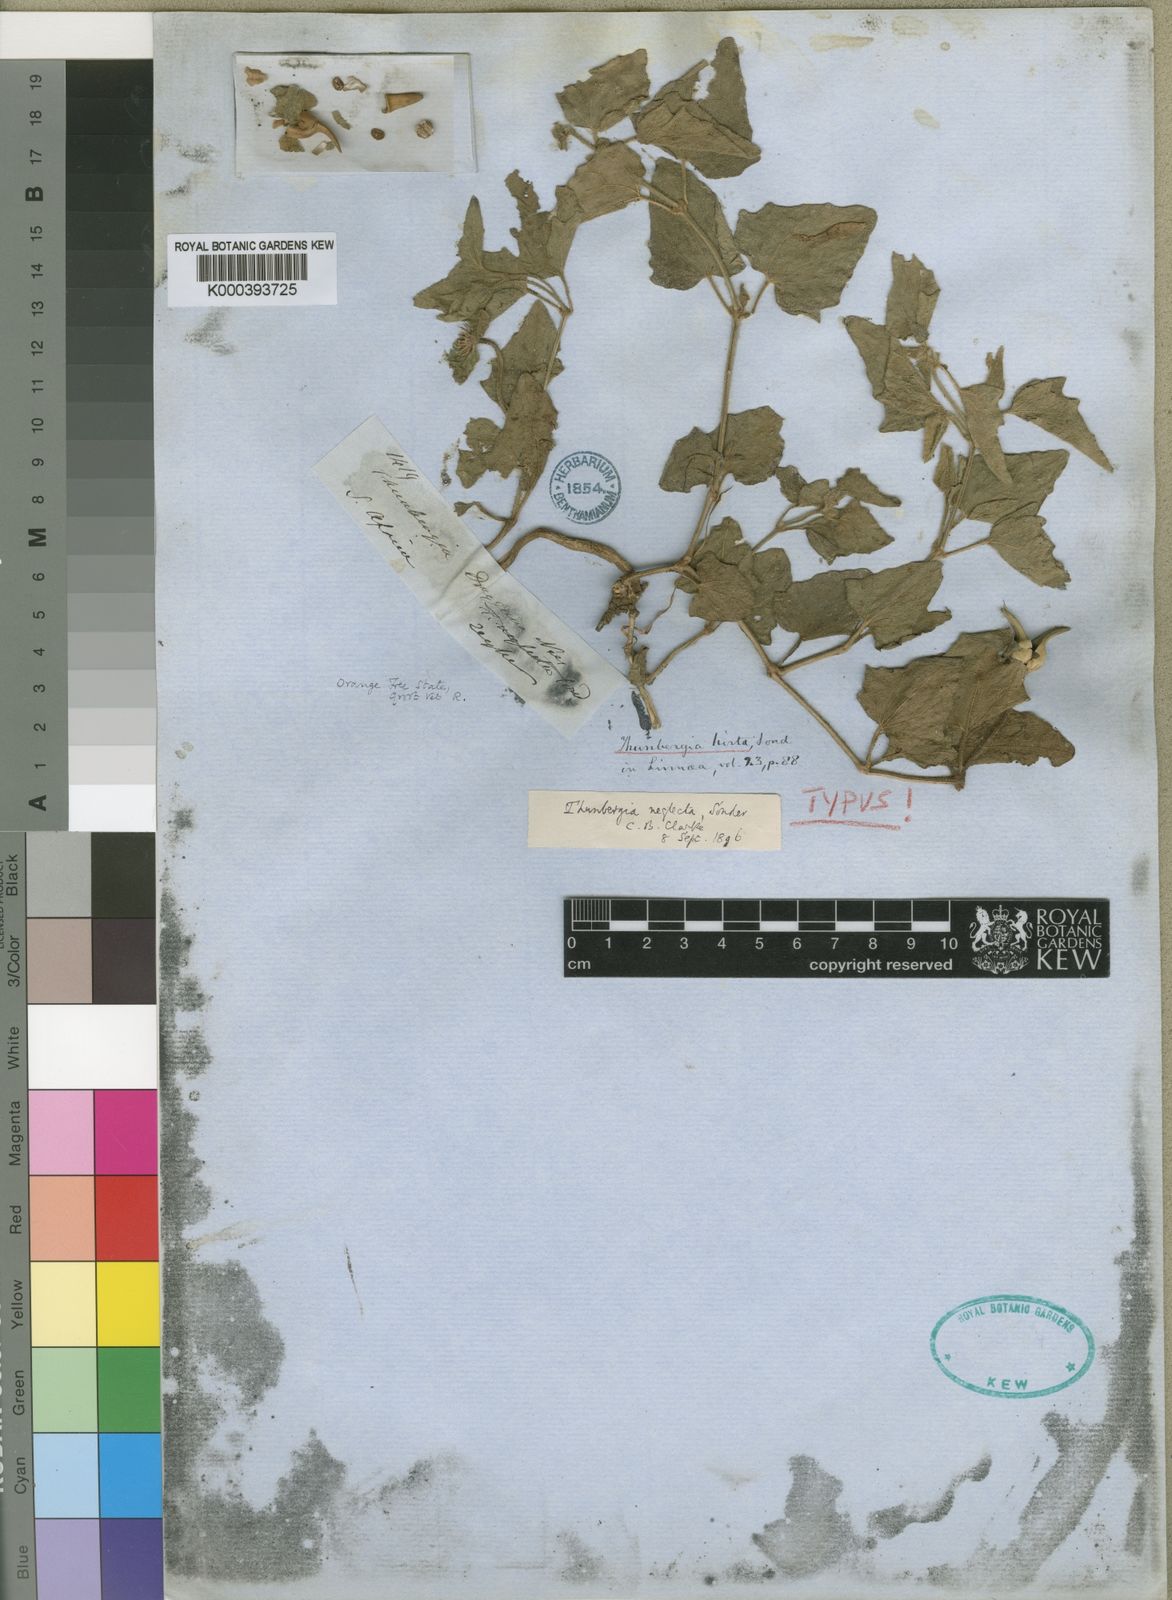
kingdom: Plantae
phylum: Tracheophyta
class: Magnoliopsida
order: Lamiales
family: Acanthaceae
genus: Thunbergia
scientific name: Thunbergia neglecta
